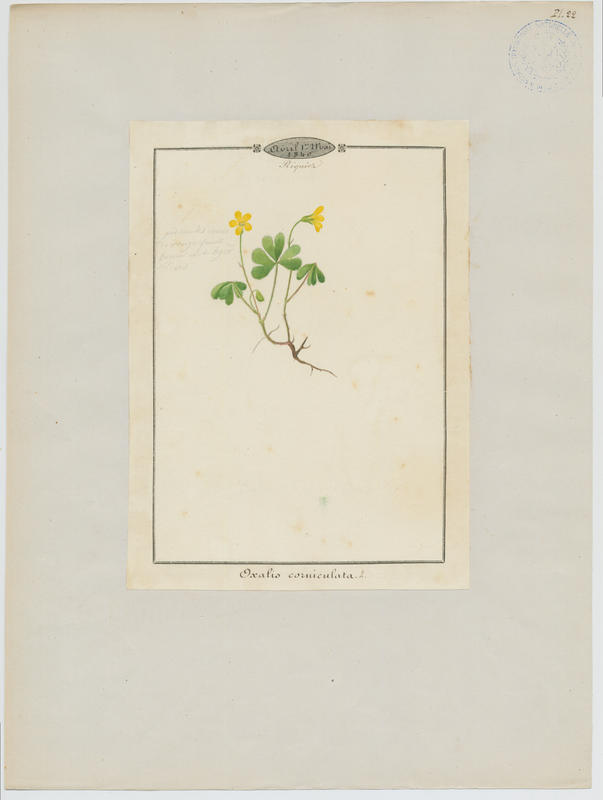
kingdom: Plantae
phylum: Tracheophyta
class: Magnoliopsida
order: Oxalidales
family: Oxalidaceae
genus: Oxalis
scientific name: Oxalis corniculata
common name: Procumbent yellow-sorrel
